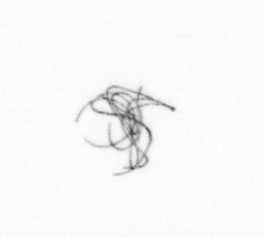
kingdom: Chromista
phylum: Ochrophyta
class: Bacillariophyceae
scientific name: Bacillariophyceae
